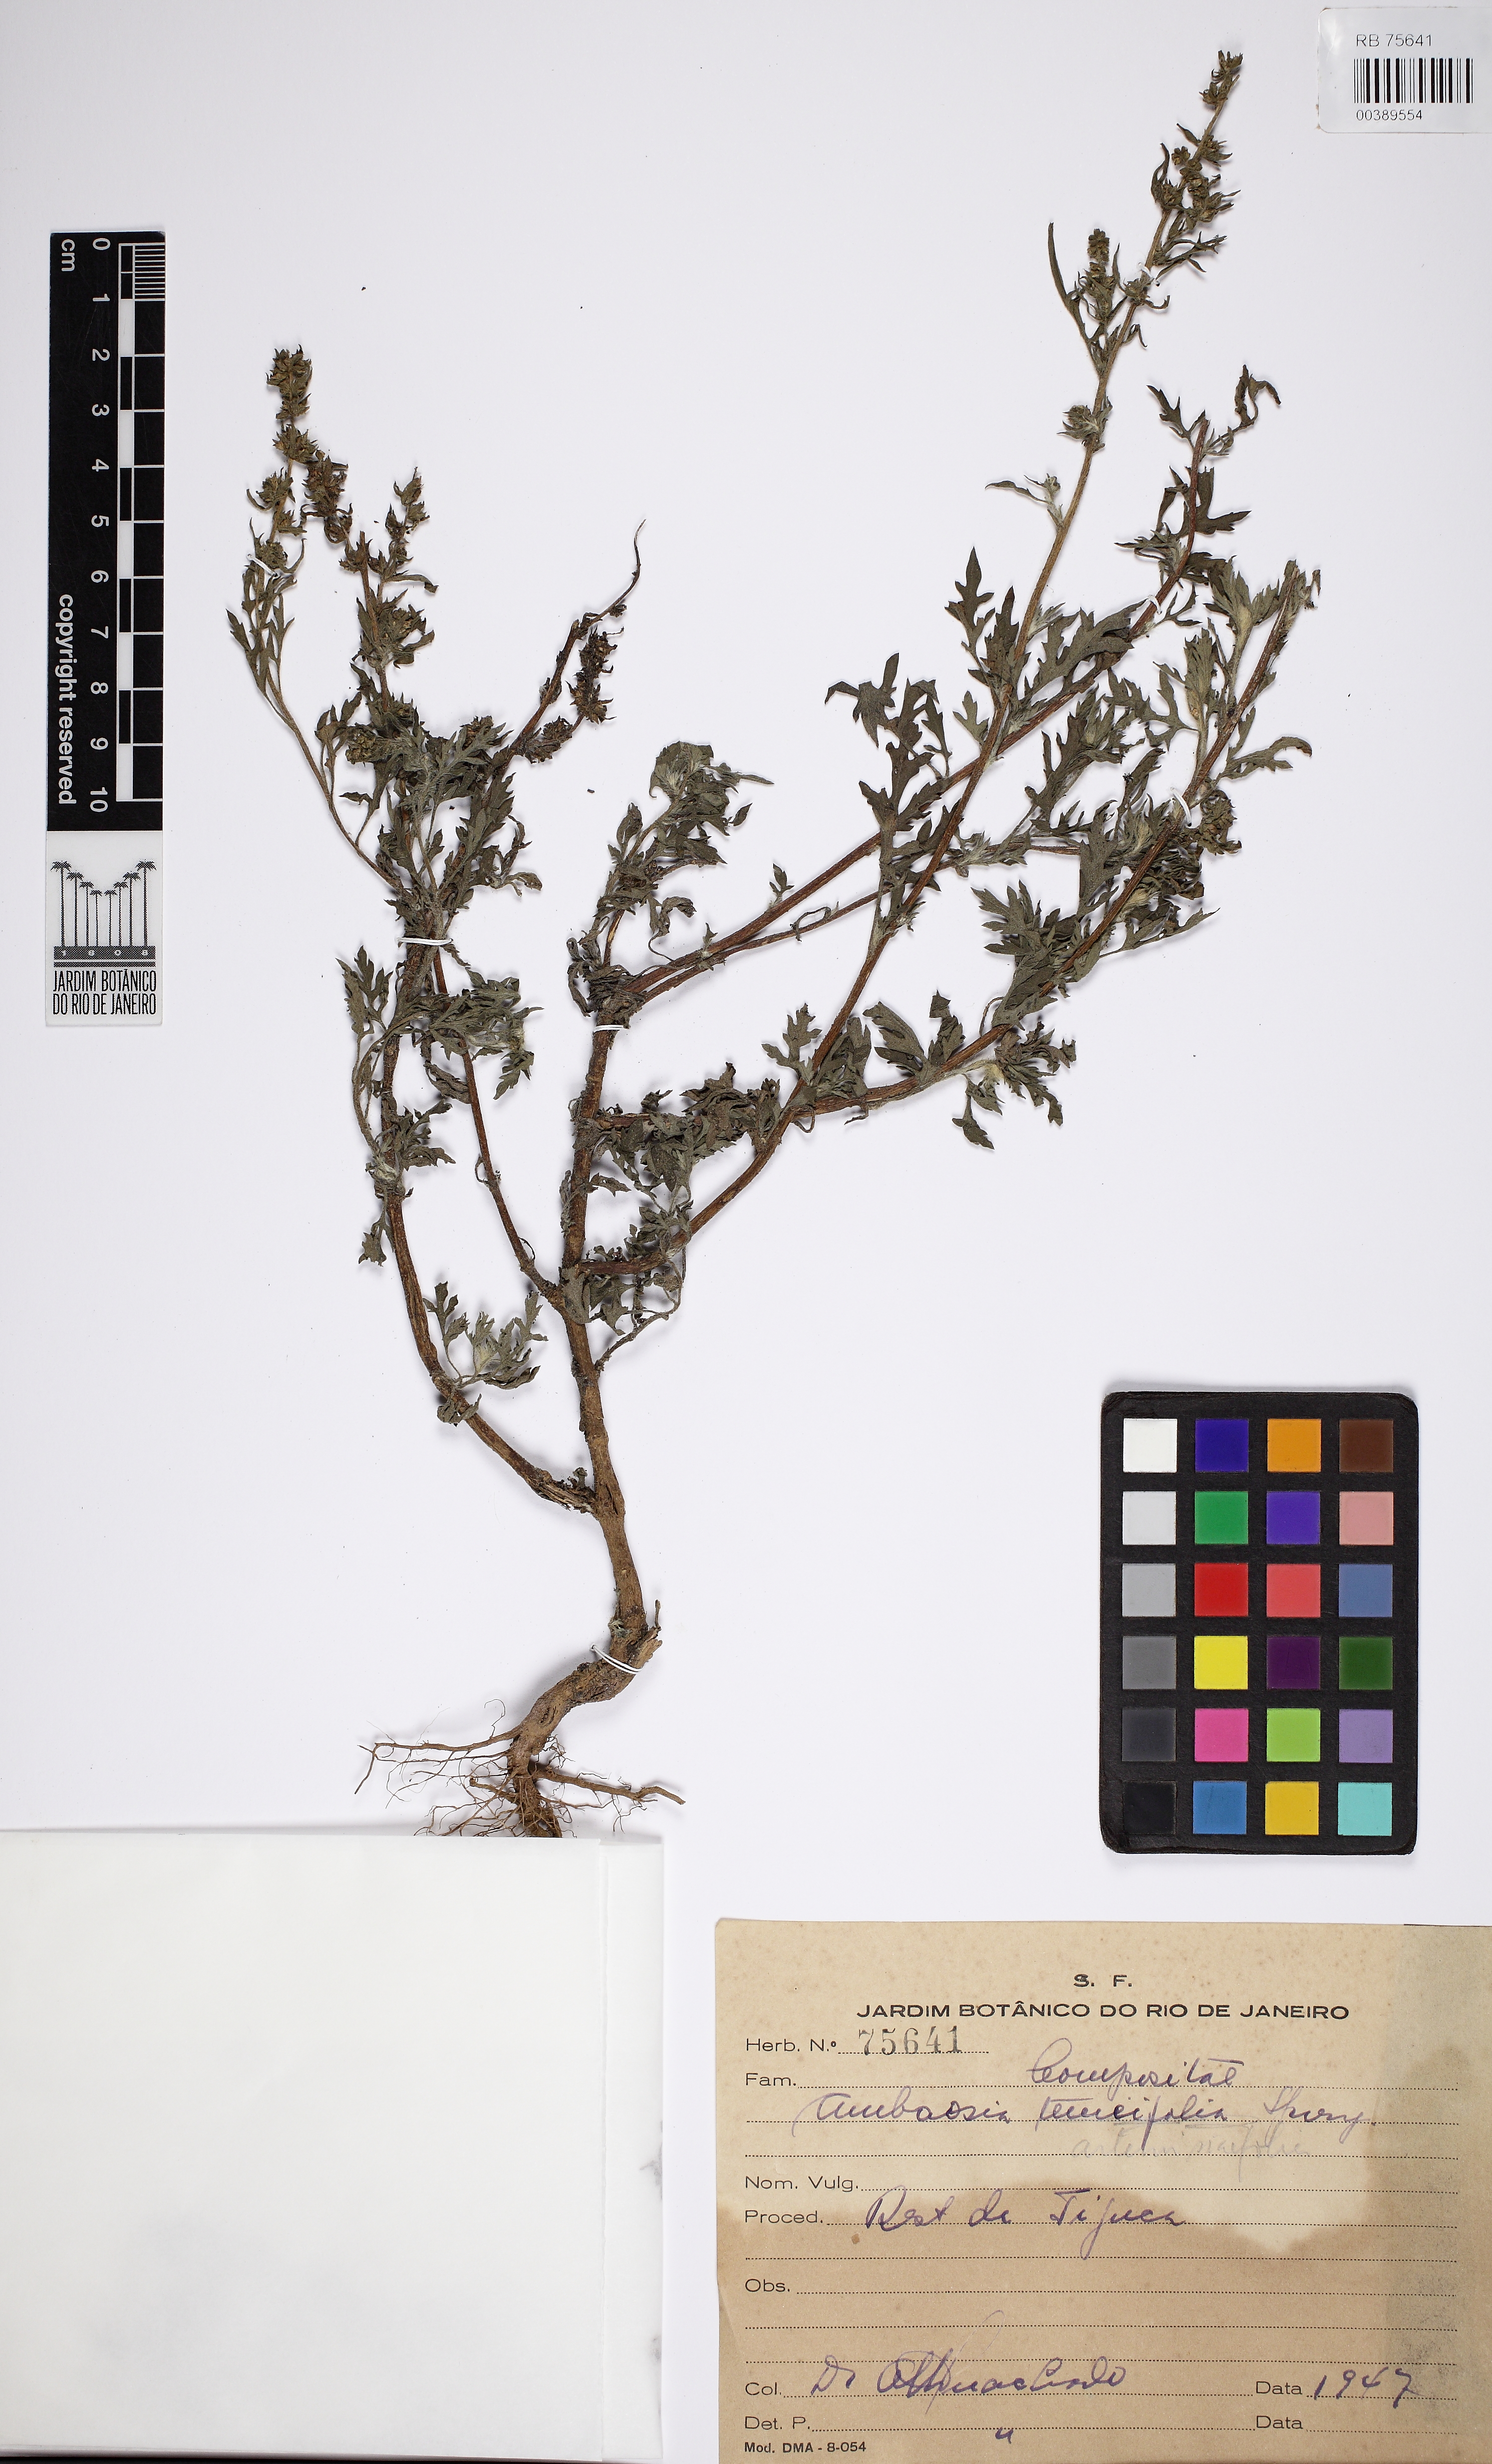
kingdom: Plantae
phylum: Tracheophyta
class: Magnoliopsida
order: Asterales
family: Asteraceae
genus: Ambrosia
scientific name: Ambrosia artemisiifolia
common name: Annual ragweed
